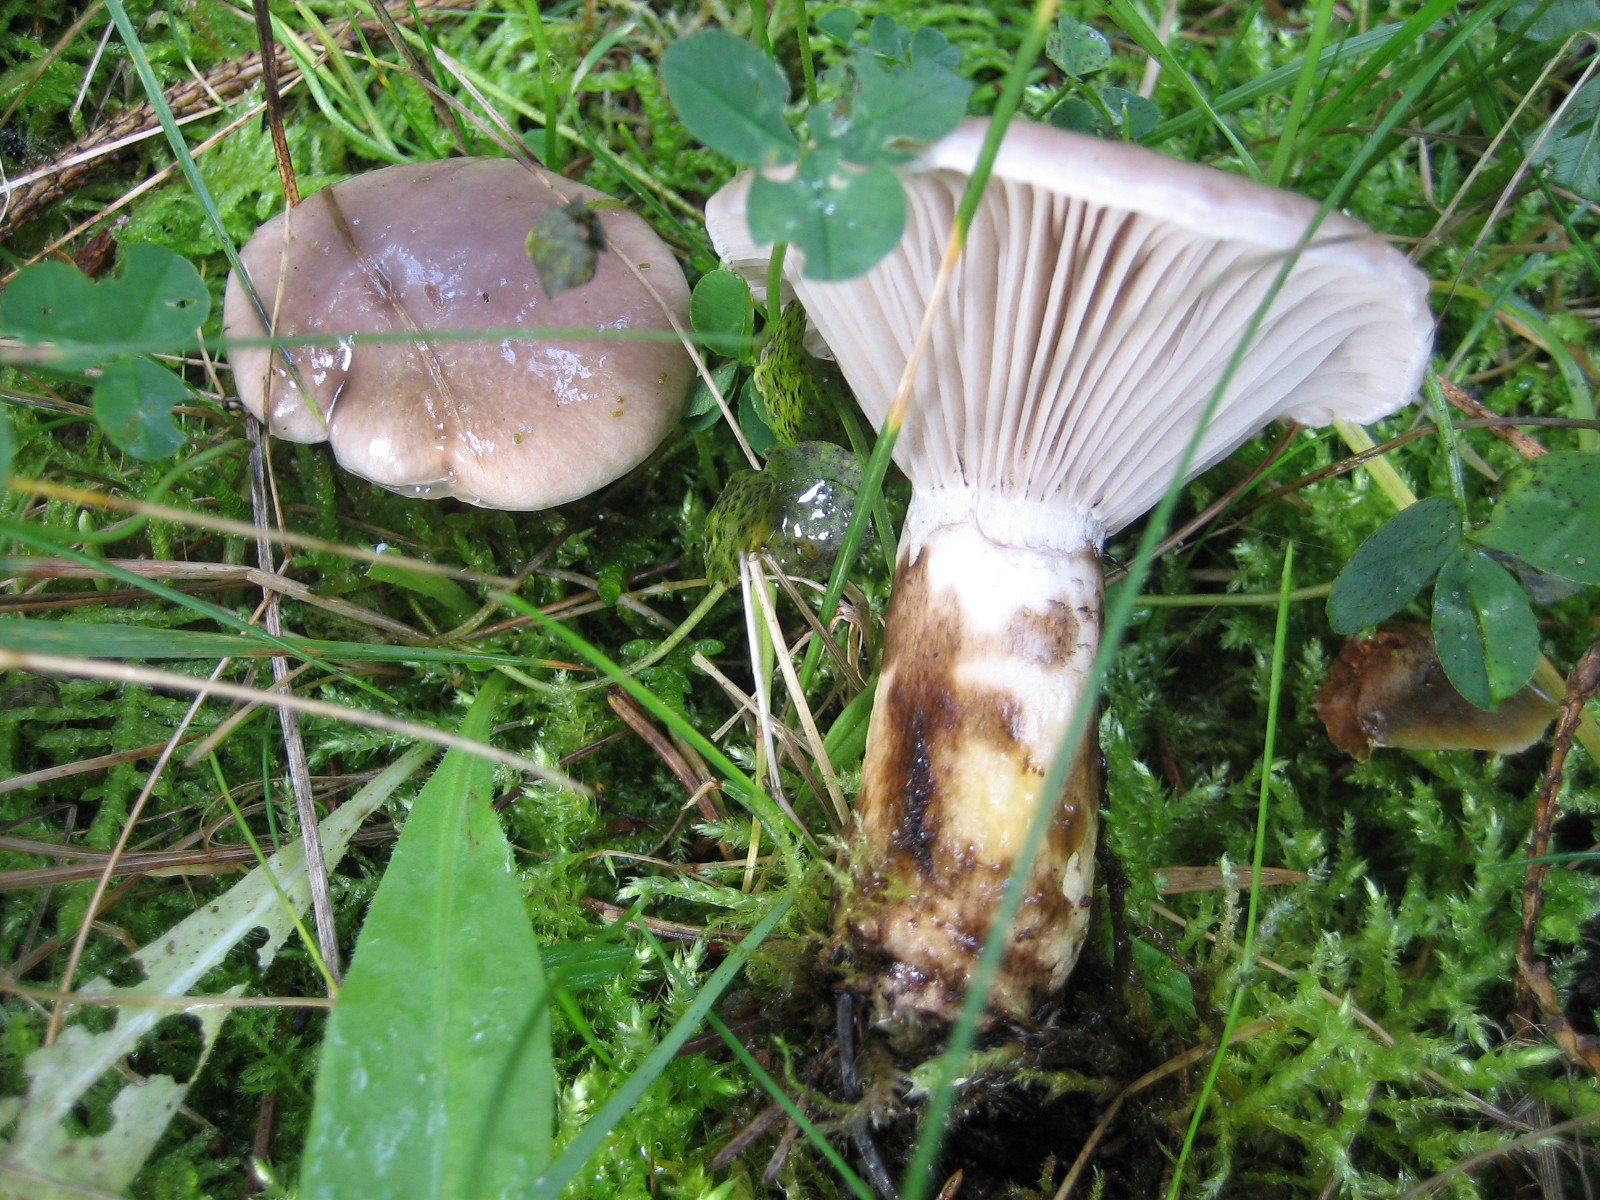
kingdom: Fungi
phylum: Basidiomycota
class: Agaricomycetes
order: Boletales
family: Gomphidiaceae
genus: Gomphidius
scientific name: Gomphidius glutinosus
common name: grå slimslør
